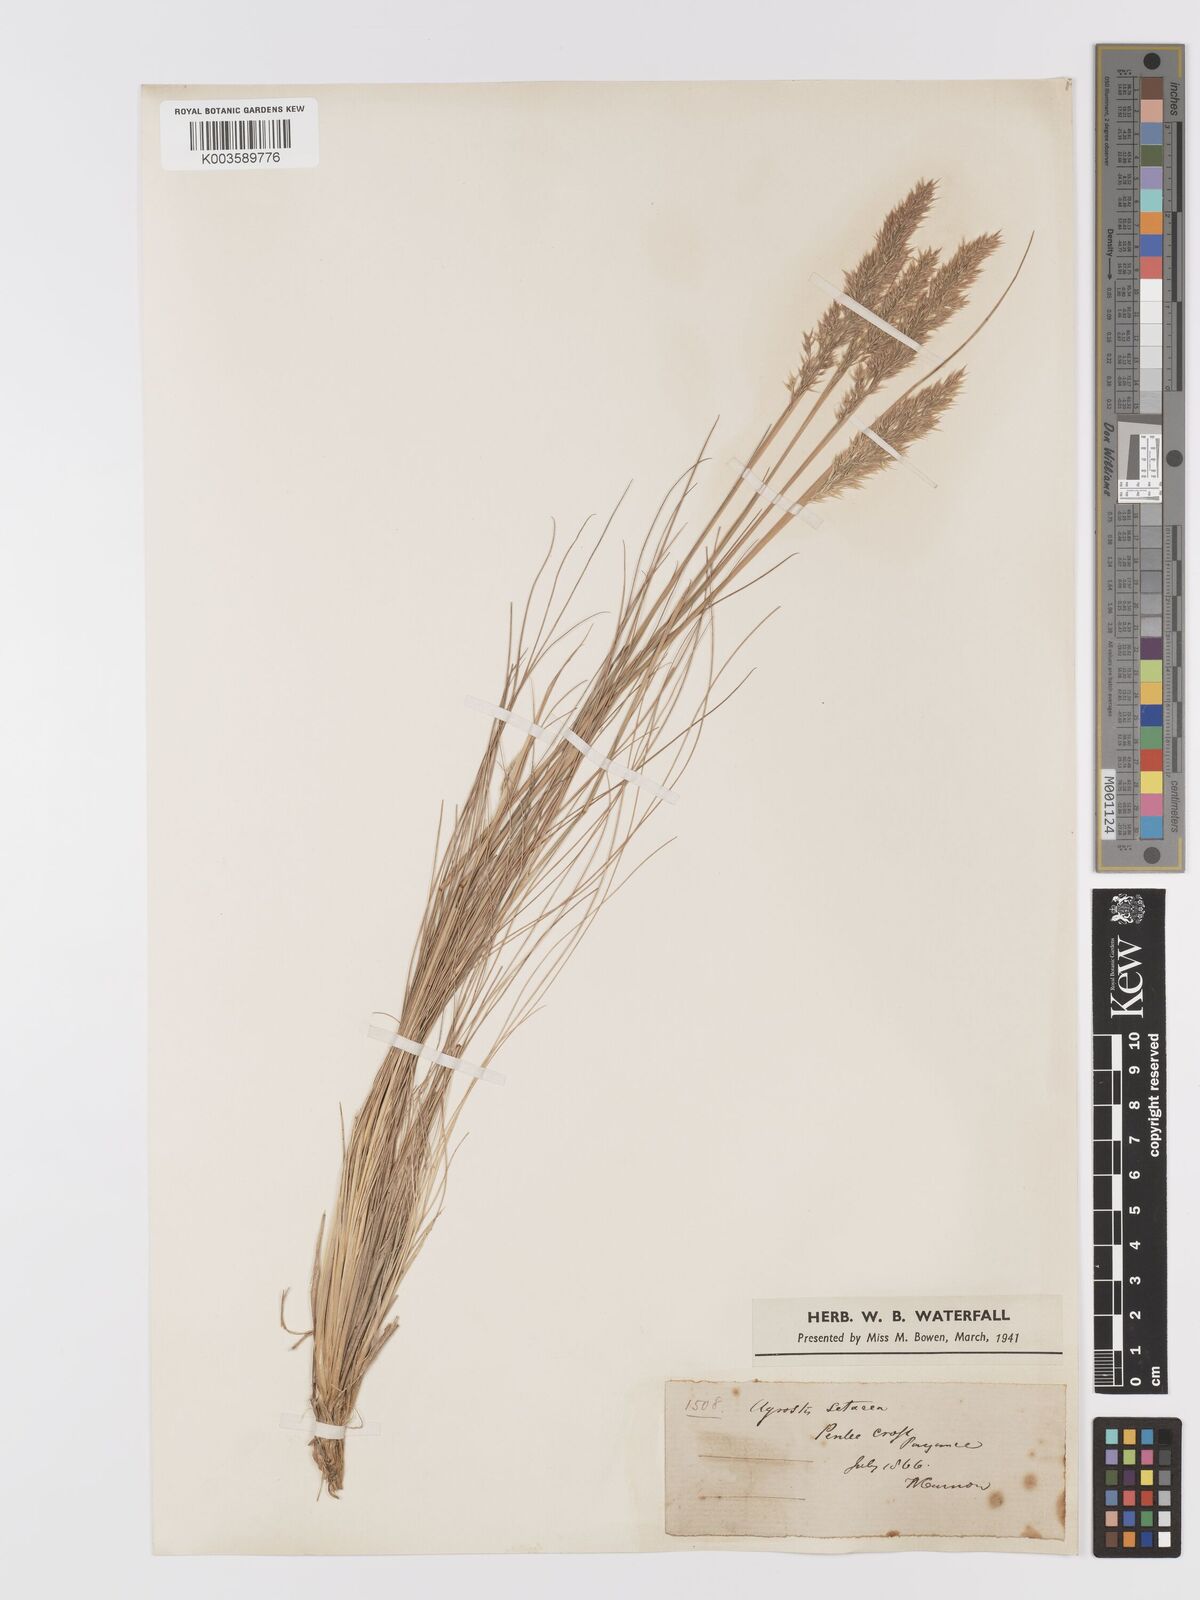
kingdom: Plantae
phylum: Tracheophyta
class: Liliopsida
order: Poales
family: Poaceae
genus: Alpagrostis
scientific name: Alpagrostis setacea
